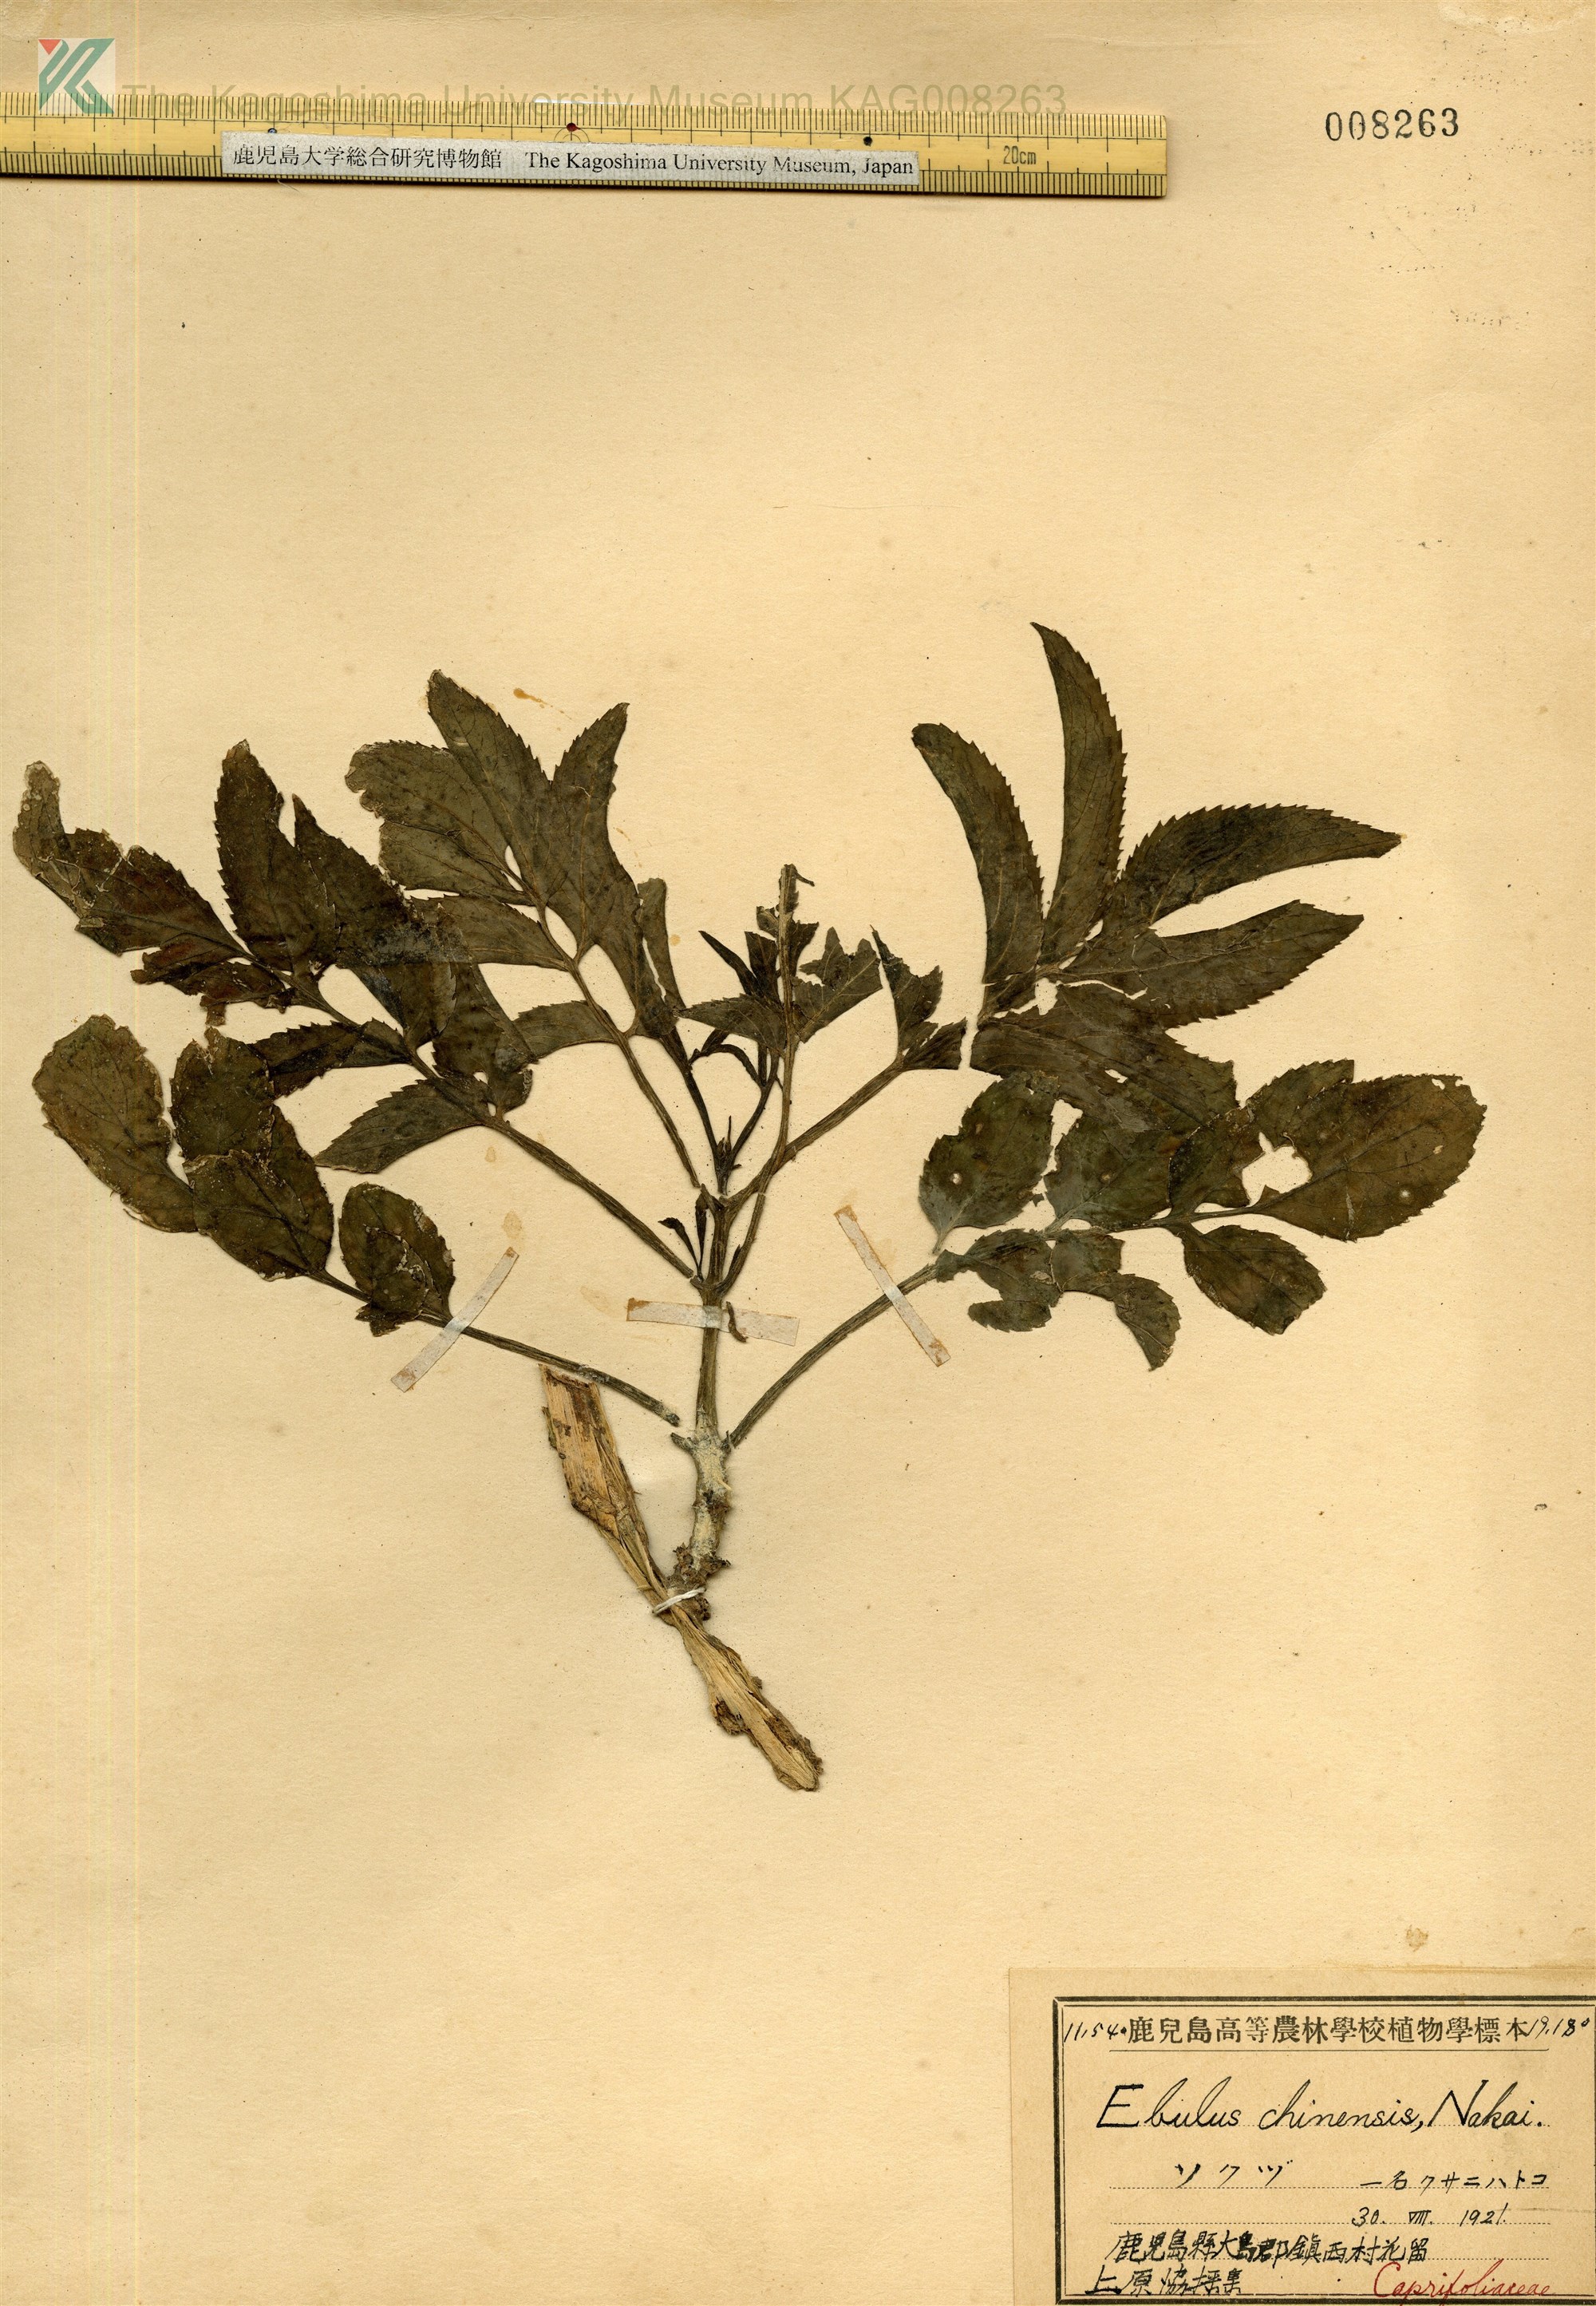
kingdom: Plantae
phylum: Tracheophyta
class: Magnoliopsida
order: Dipsacales
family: Viburnaceae
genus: Sambucus
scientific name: Sambucus javanica
